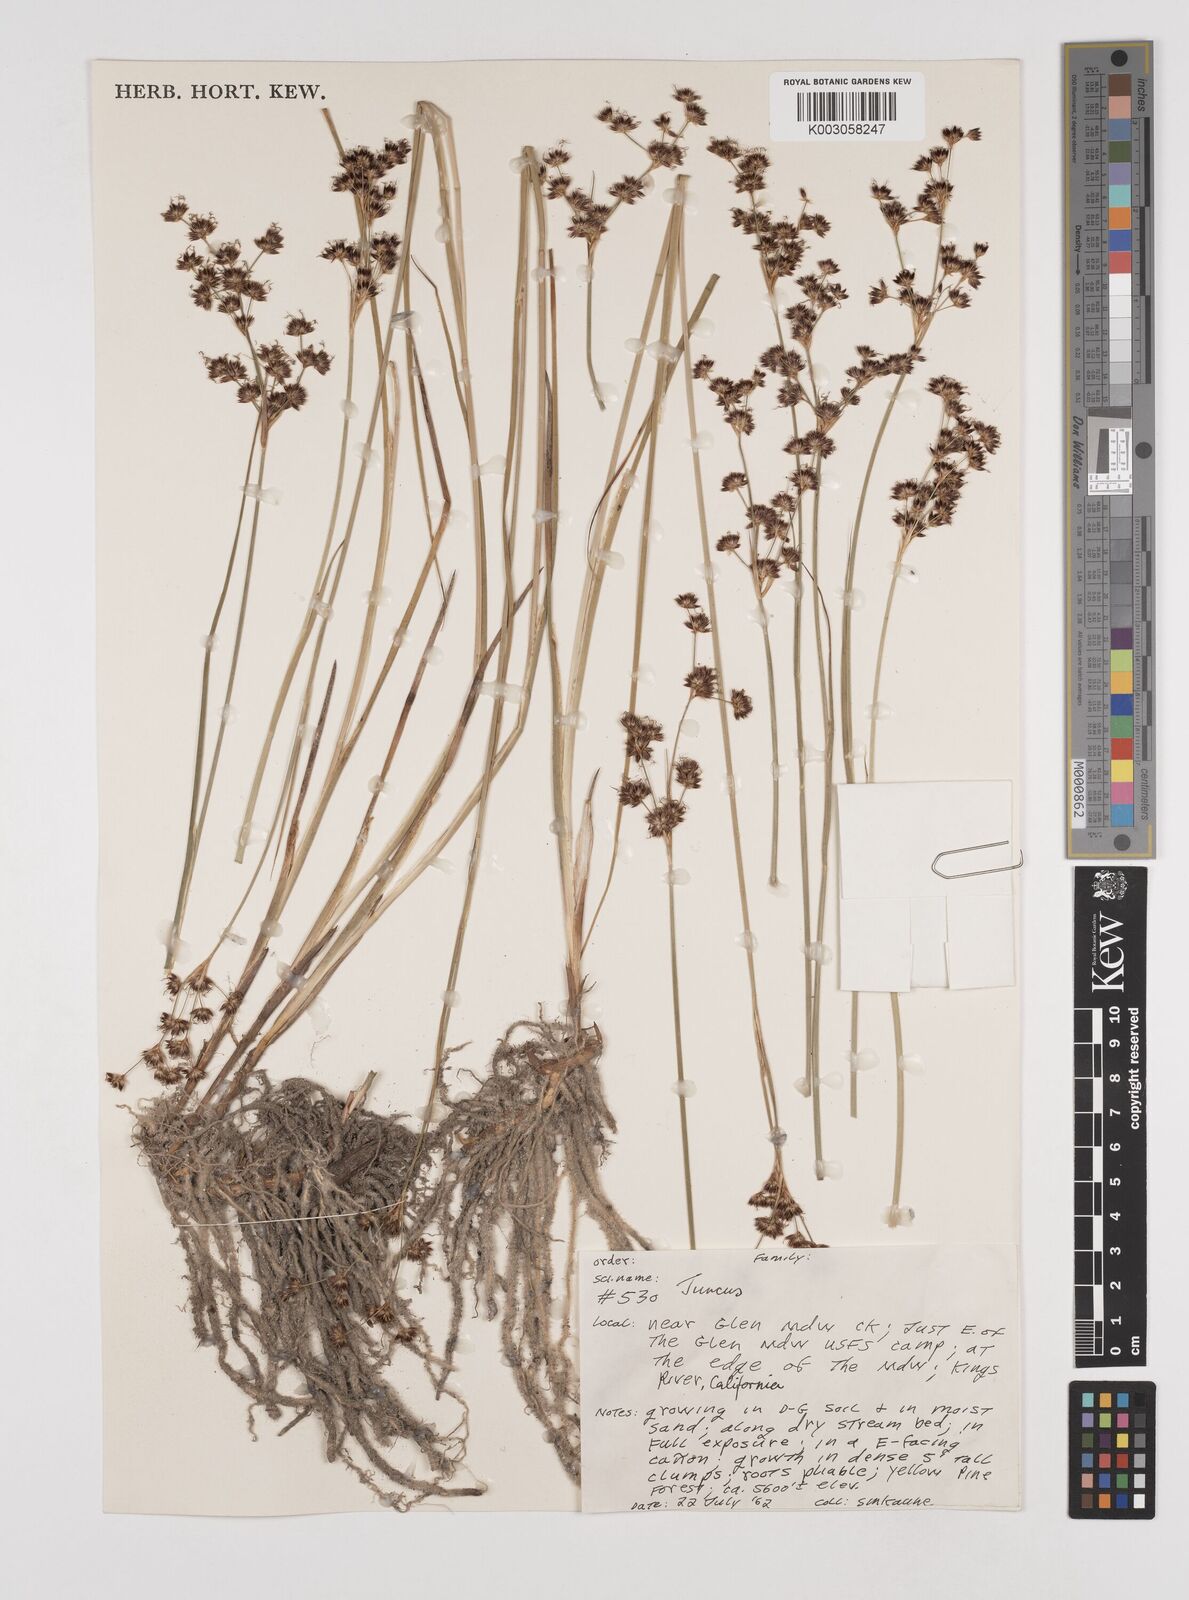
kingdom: Plantae
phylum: Tracheophyta
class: Liliopsida
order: Poales
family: Juncaceae
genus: Juncus
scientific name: Juncus
